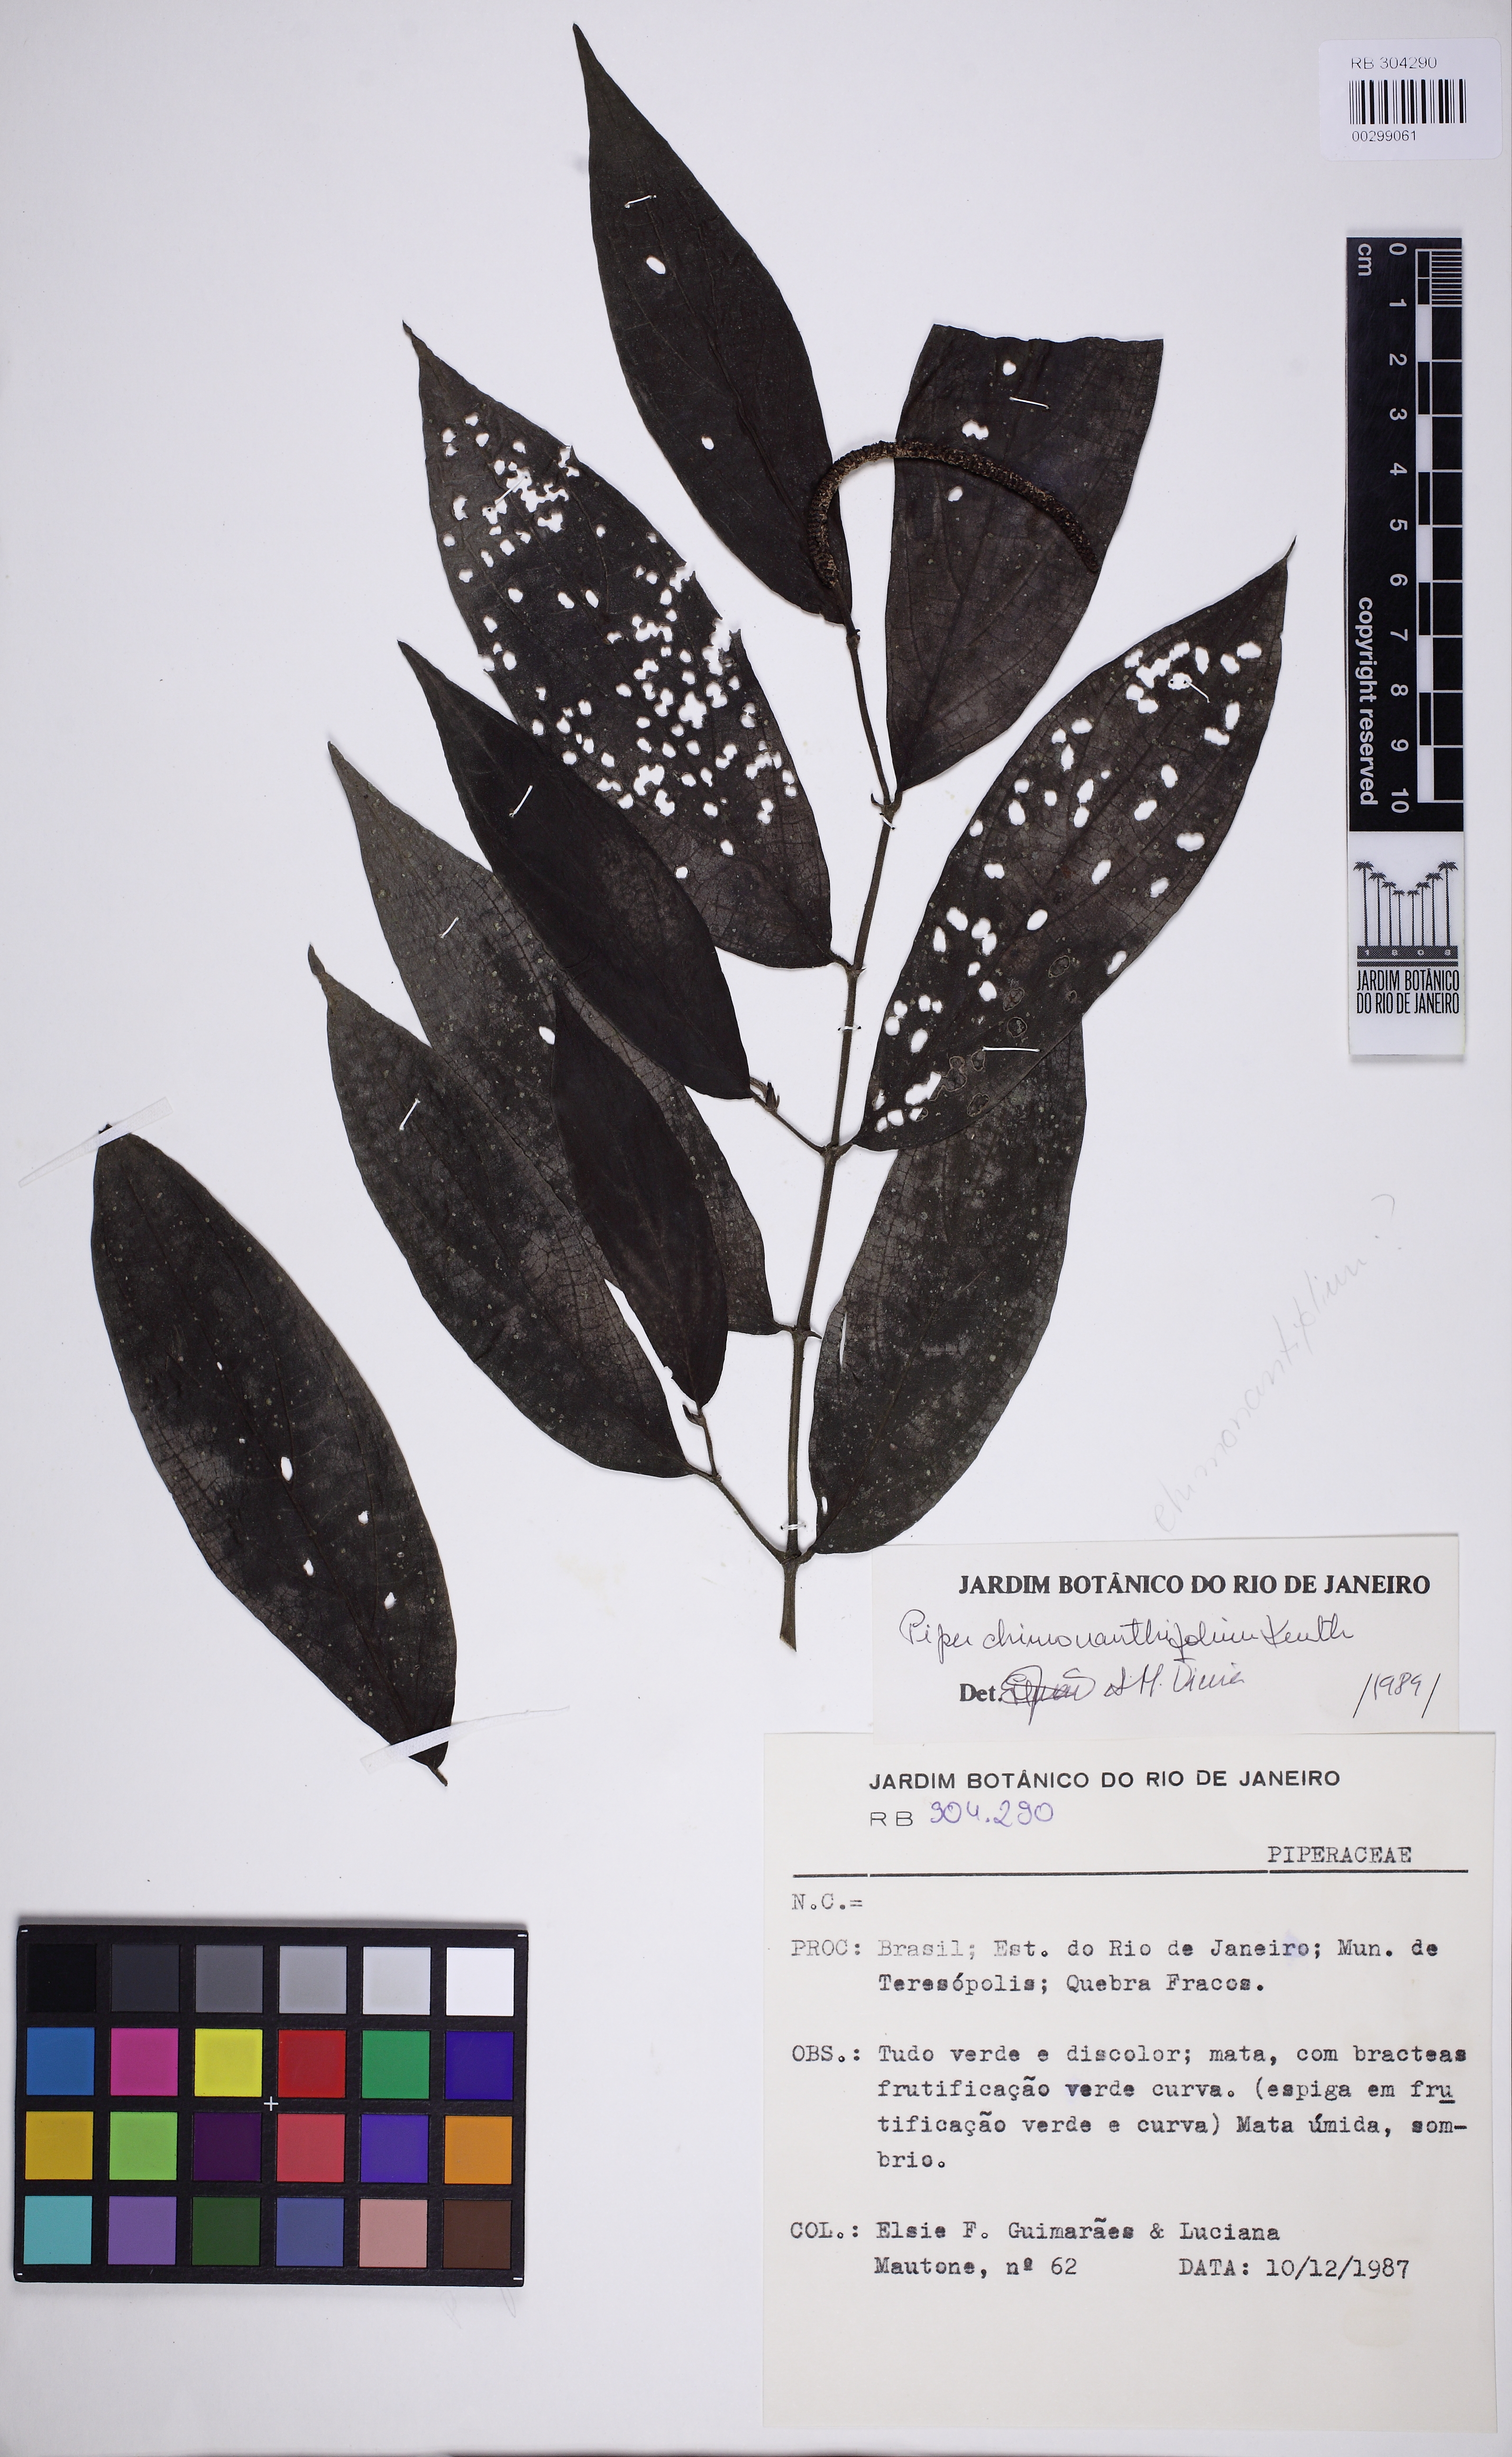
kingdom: Plantae
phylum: Tracheophyta
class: Magnoliopsida
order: Piperales
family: Piperaceae
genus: Piper
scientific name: Piper chimonanthifolium
